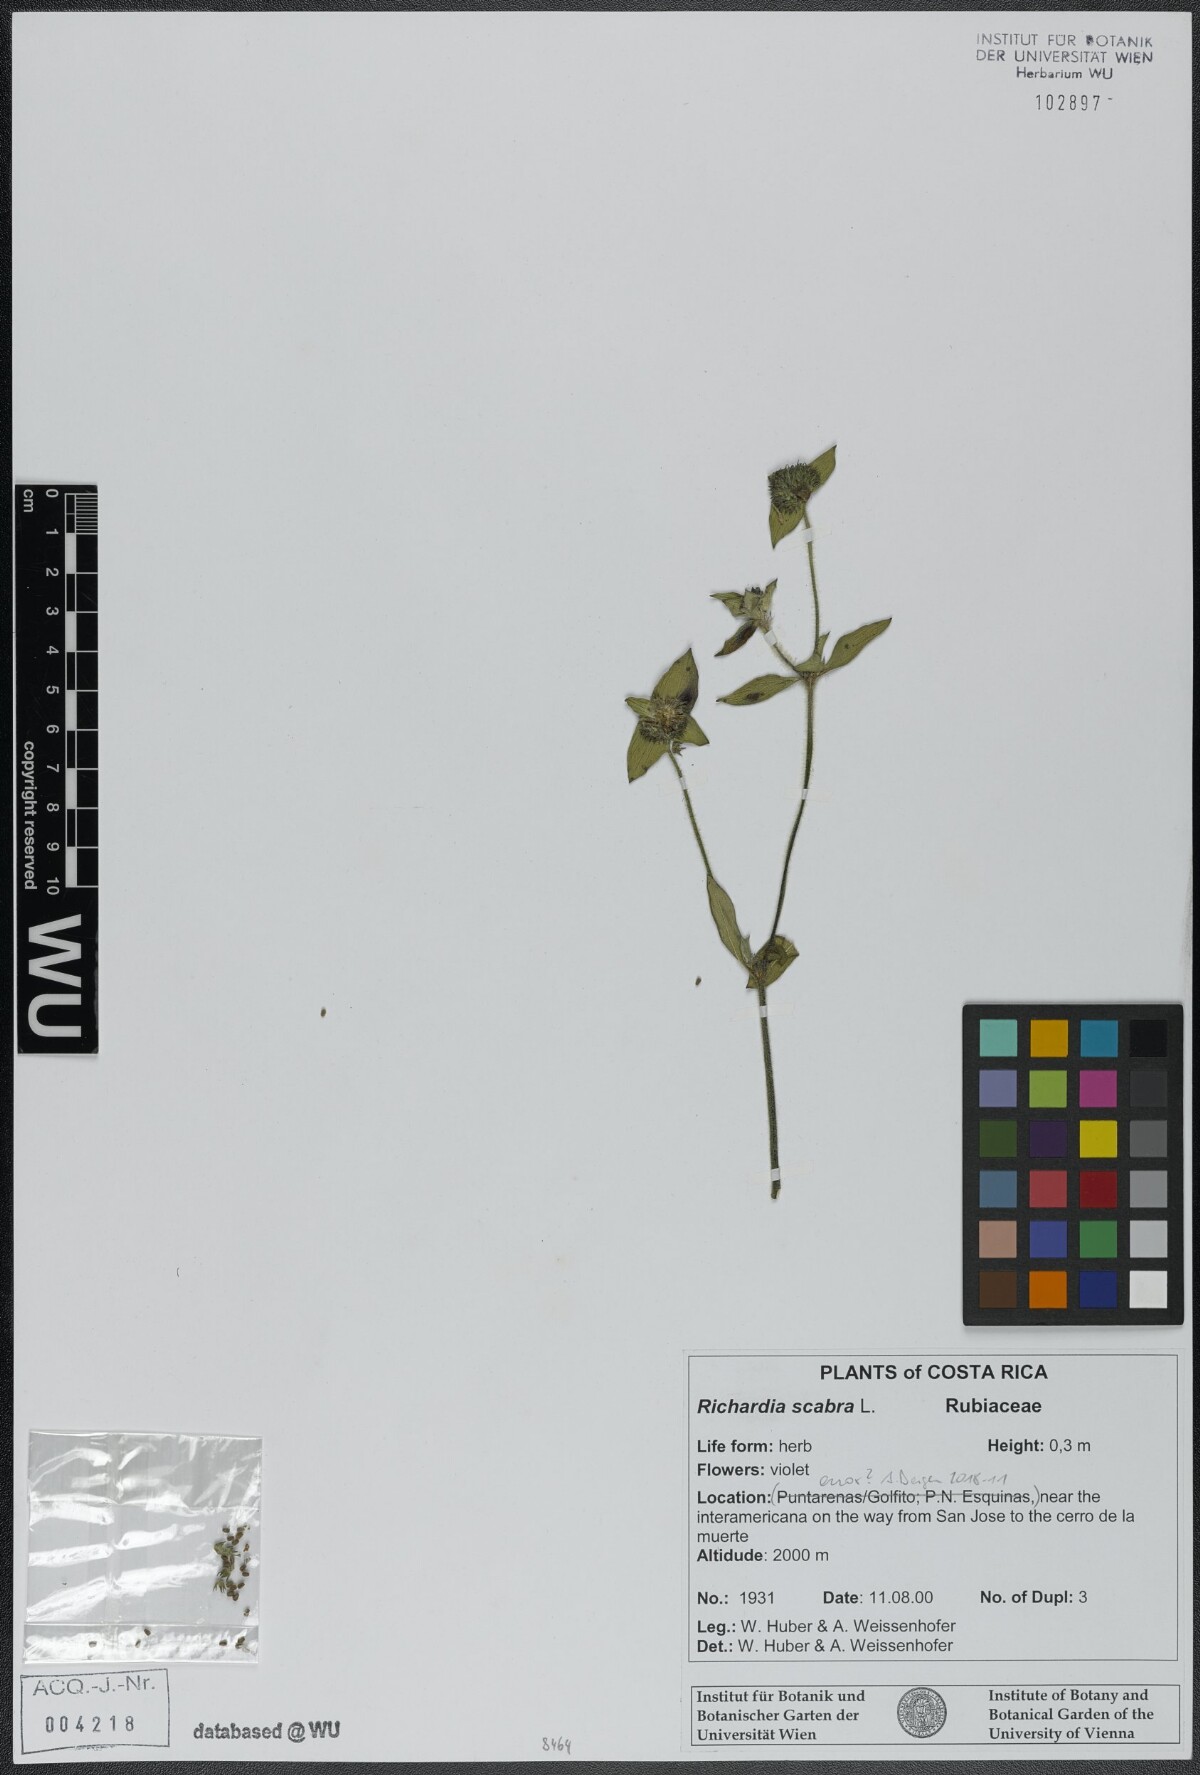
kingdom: Plantae
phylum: Tracheophyta
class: Magnoliopsida
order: Gentianales
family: Rubiaceae
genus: Richardia
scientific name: Richardia scabra
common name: Rough mexican clover
